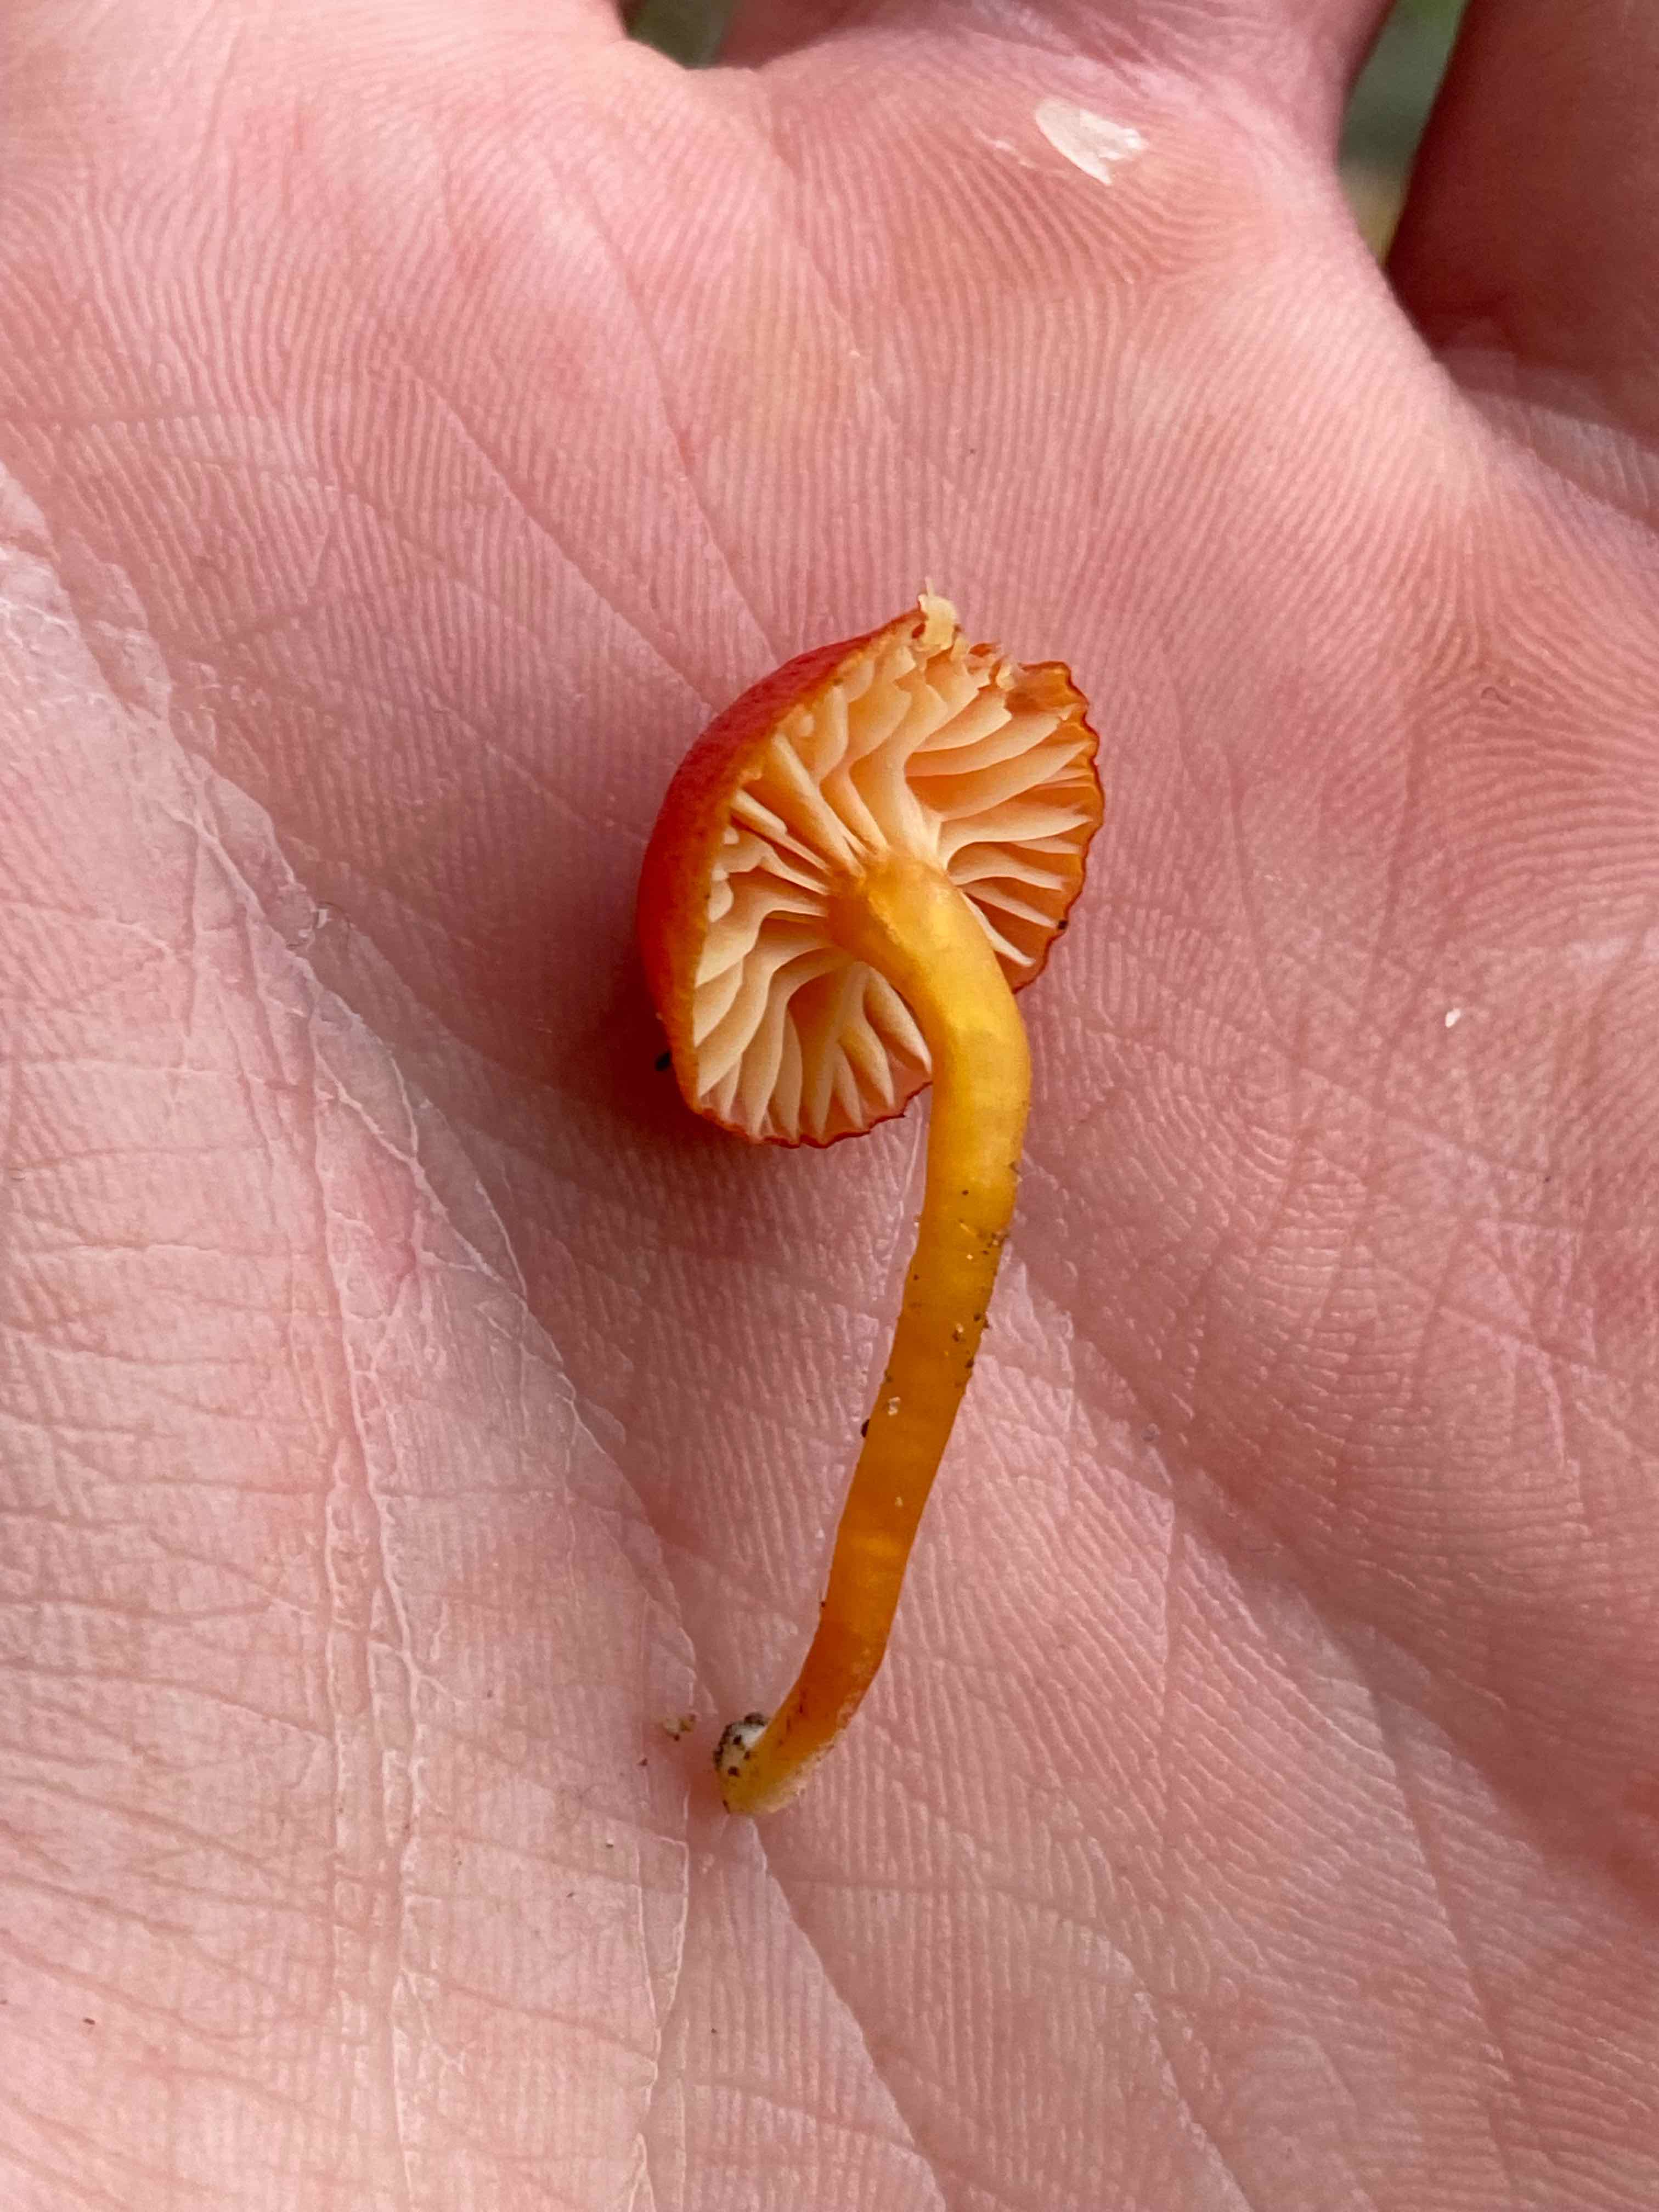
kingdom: Fungi
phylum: Basidiomycota
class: Agaricomycetes
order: Agaricales
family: Hygrophoraceae
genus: Hygrocybe
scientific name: Hygrocybe insipida
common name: liden vokshat
